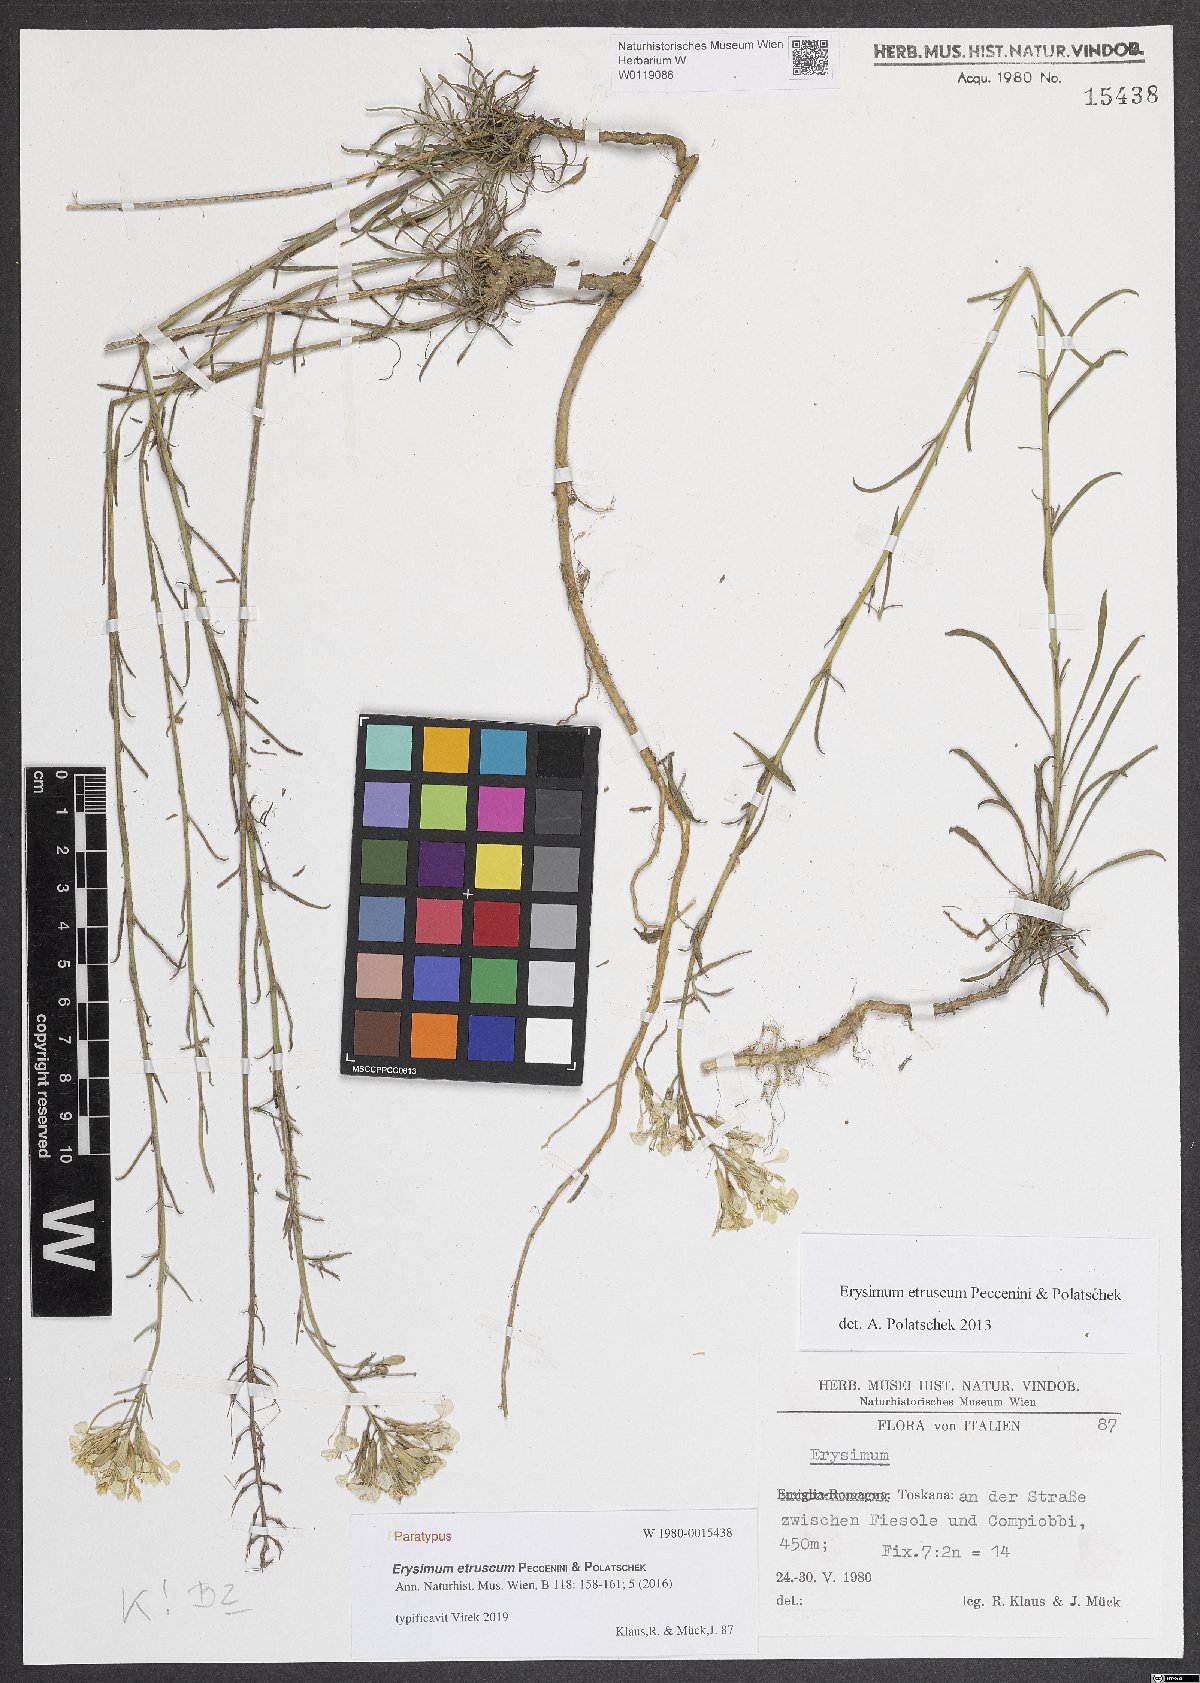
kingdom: Plantae
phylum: Tracheophyta
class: Magnoliopsida
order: Brassicales
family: Brassicaceae
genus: Erysimum
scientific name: Erysimum pseudorhaeticum
